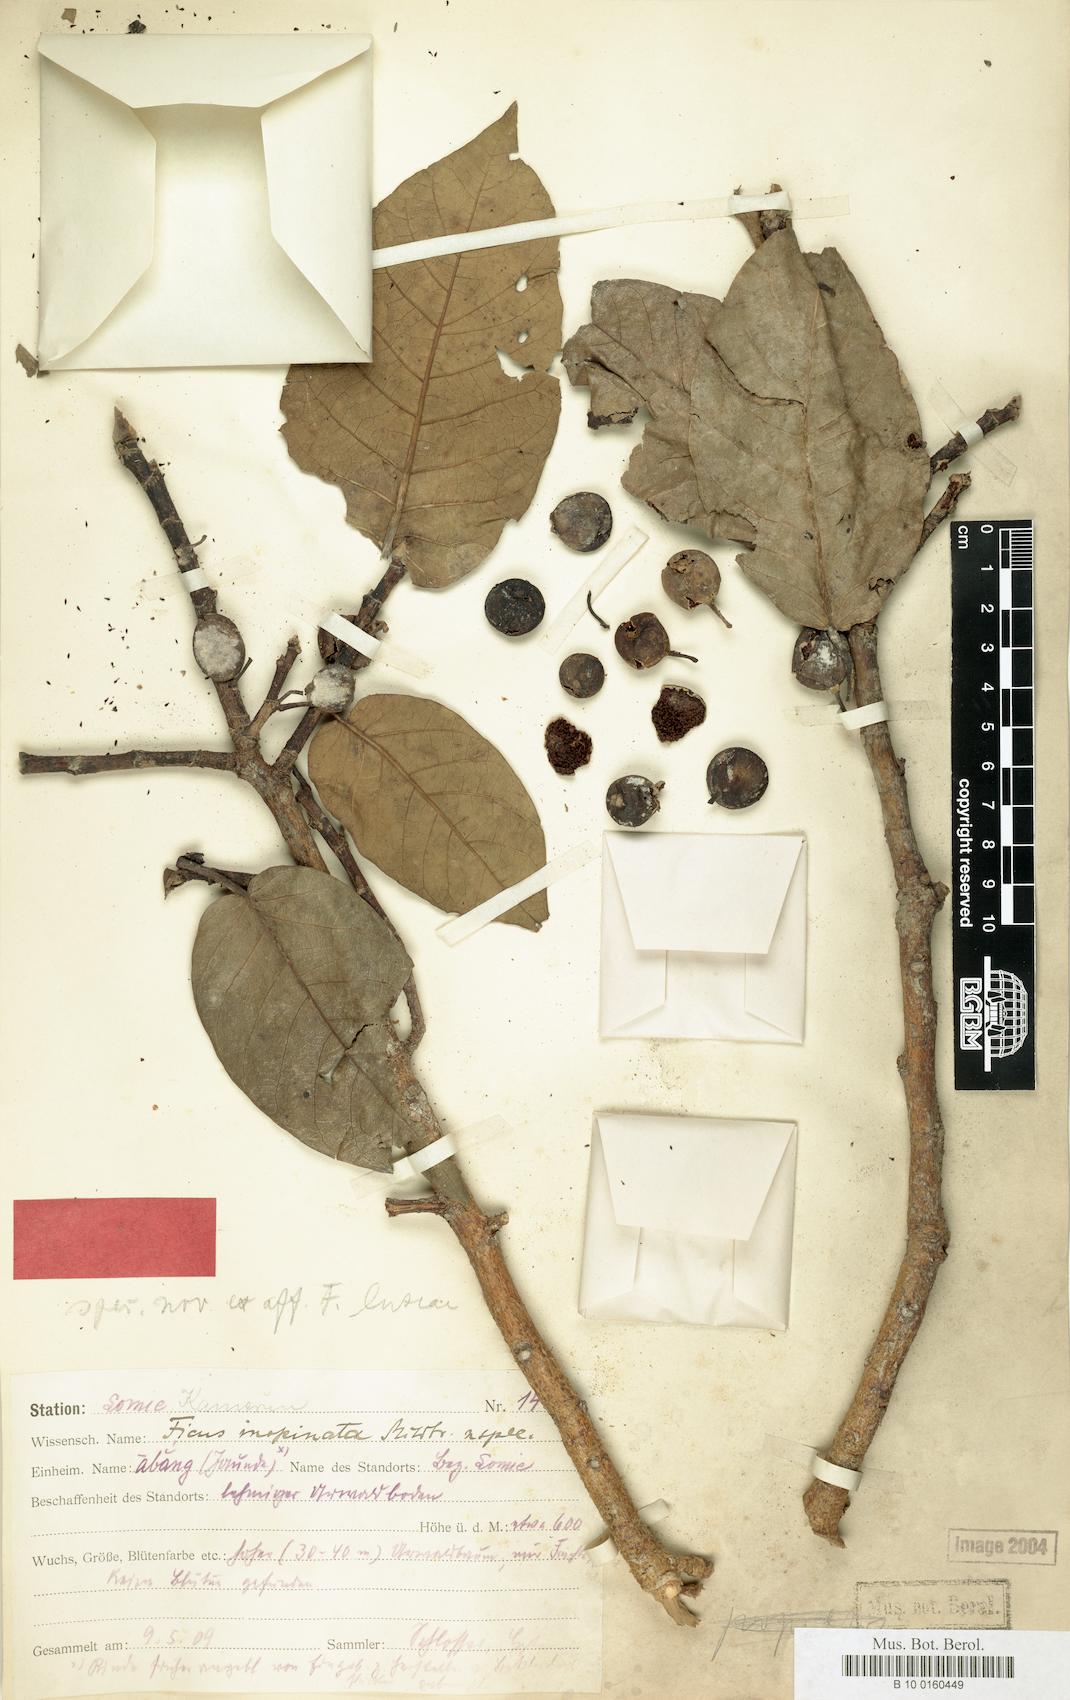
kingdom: Plantae
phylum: Tracheophyta
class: Magnoliopsida
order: Rosales
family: Moraceae
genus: Ficus
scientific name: Ficus variifolia
